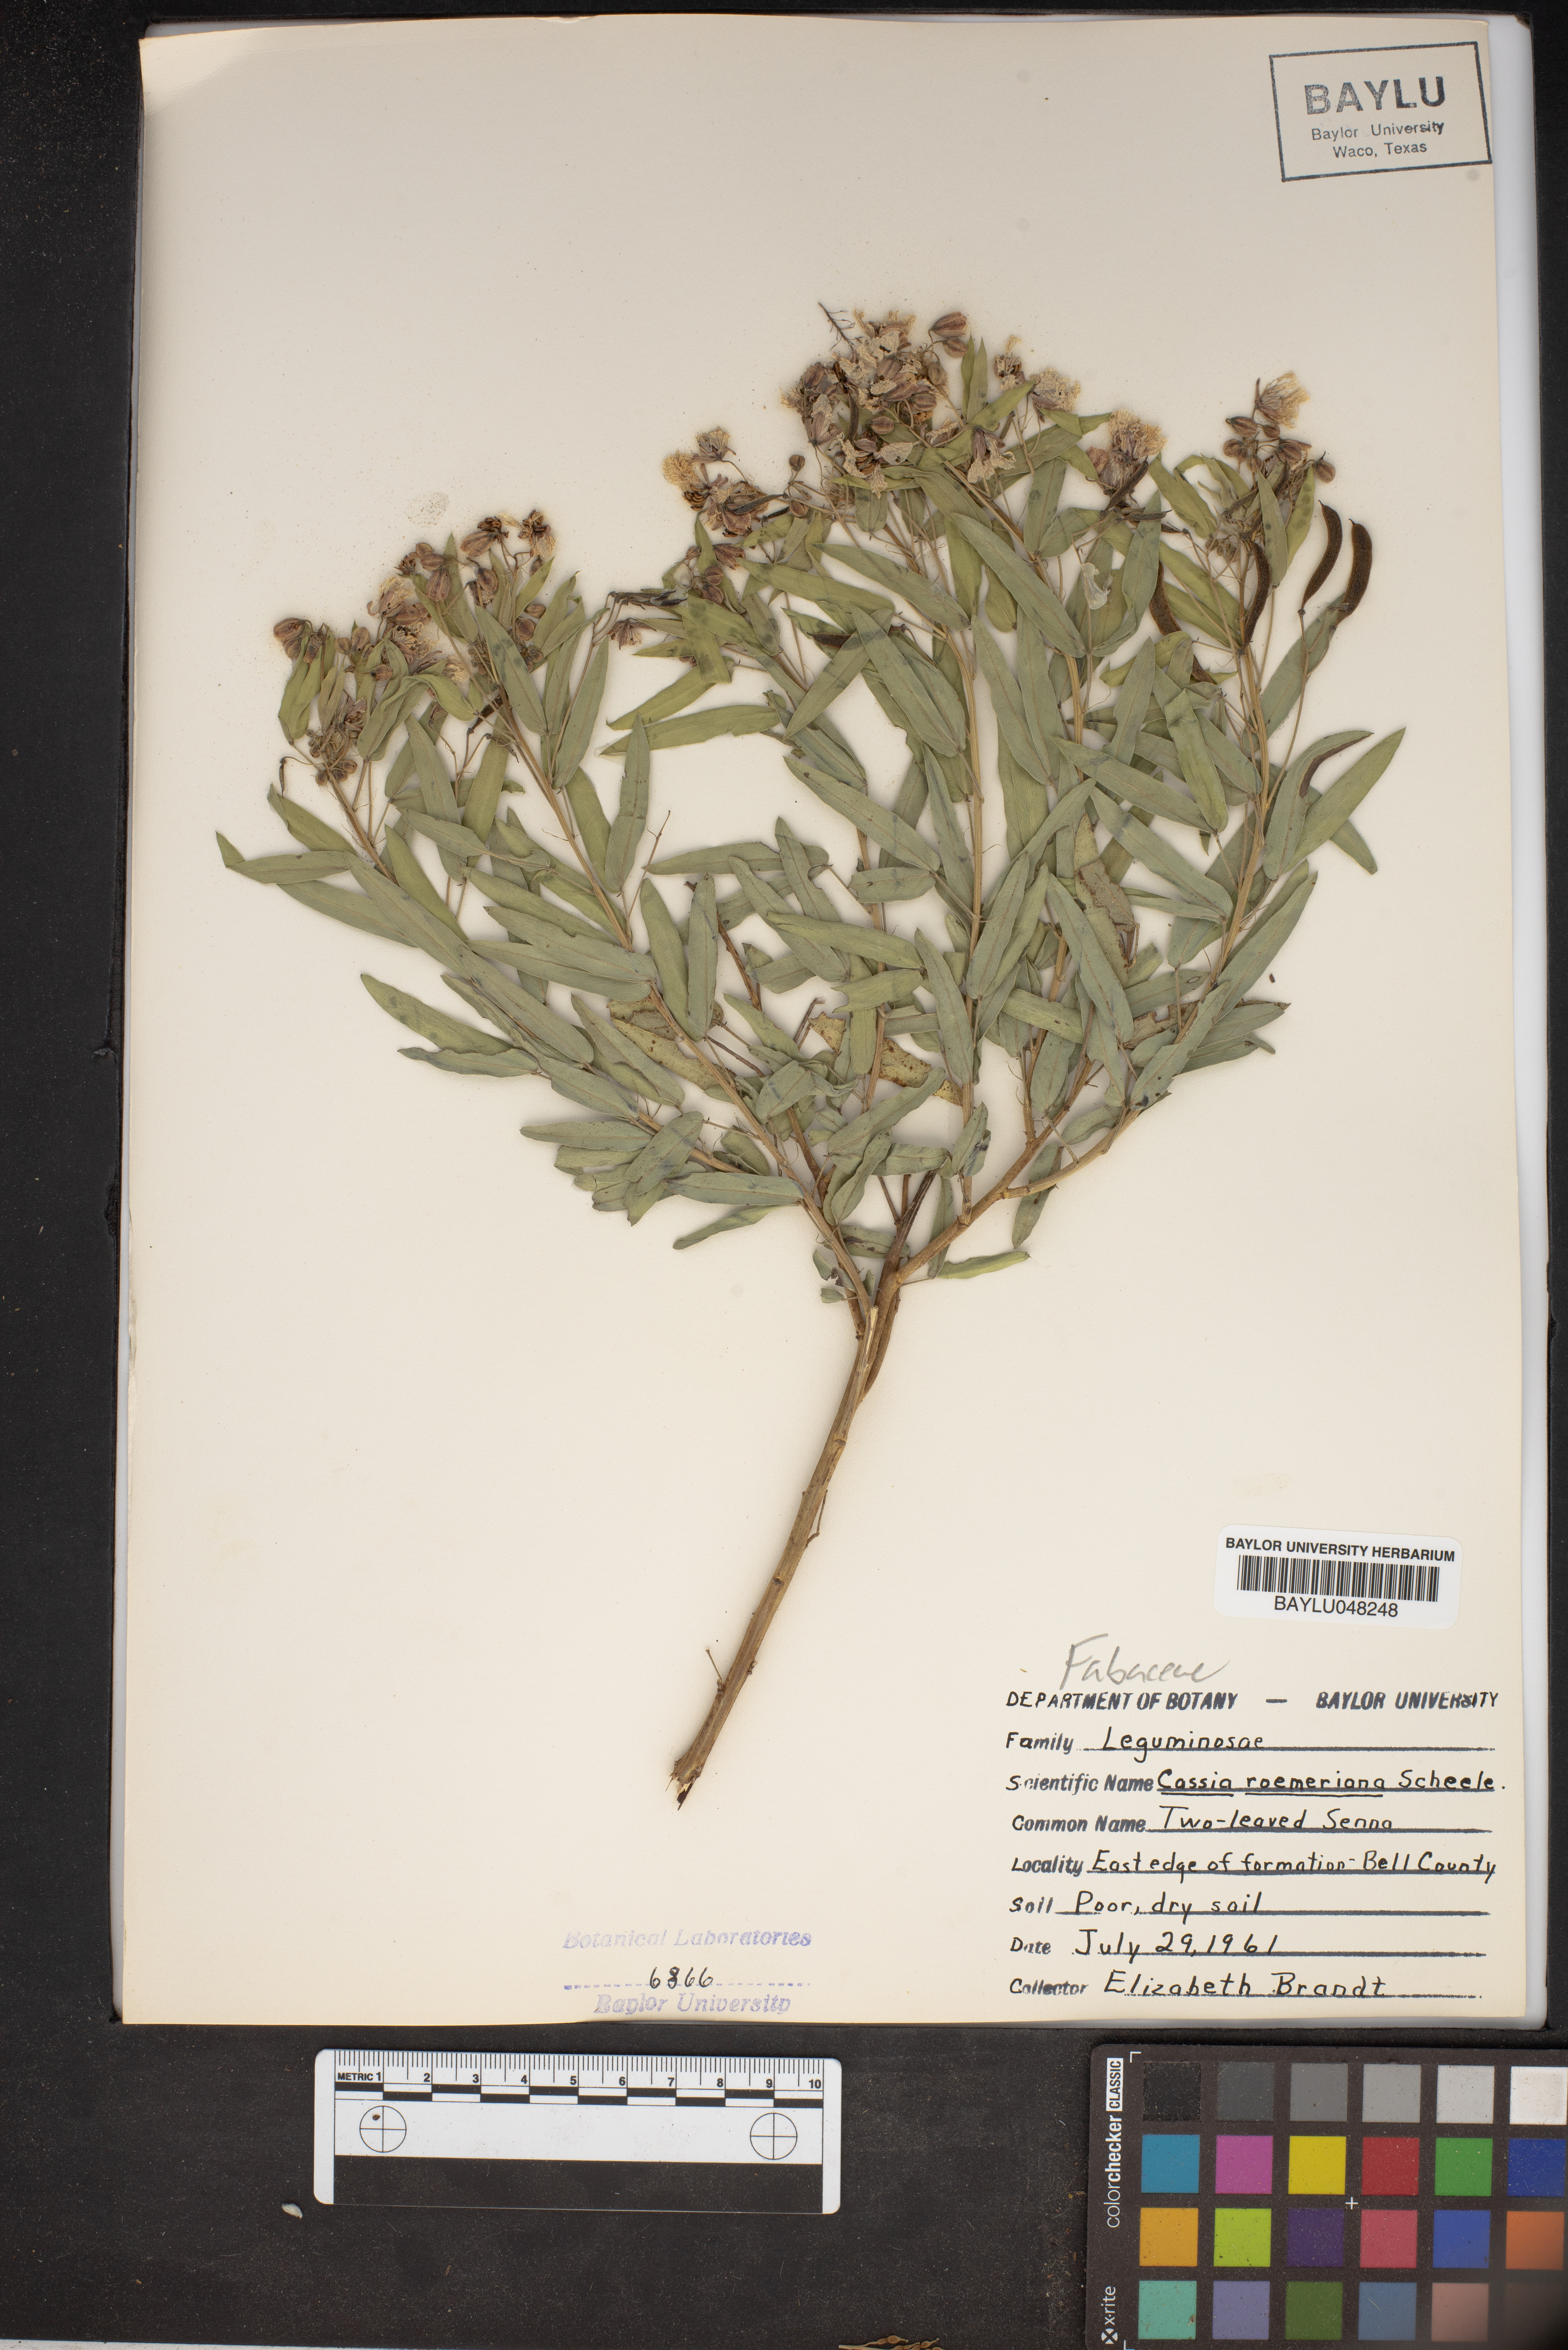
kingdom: Plantae
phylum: Tracheophyta
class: Magnoliopsida
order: Fabales
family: Fabaceae
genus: Senna
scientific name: Senna roemeriana
